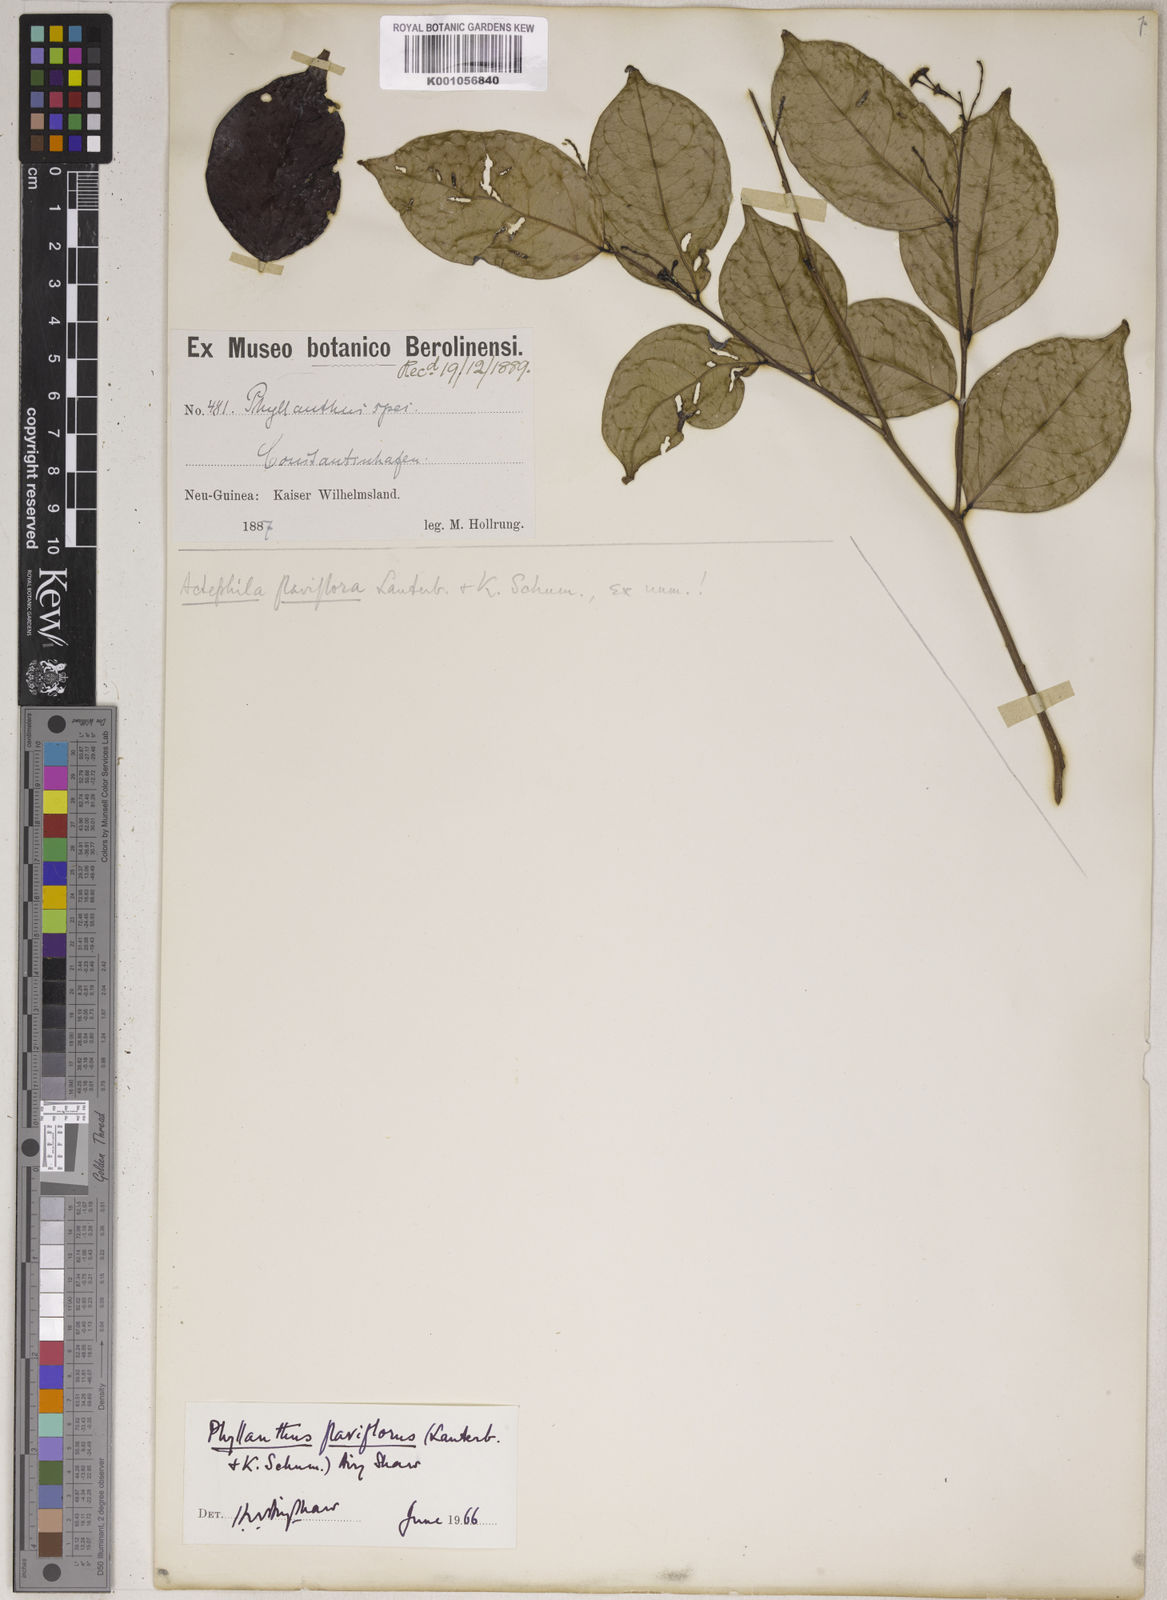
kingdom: Plantae
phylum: Tracheophyta
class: Magnoliopsida
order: Malpighiales
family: Phyllanthaceae
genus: Phyllanthus
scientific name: Phyllanthus flaviflorus
